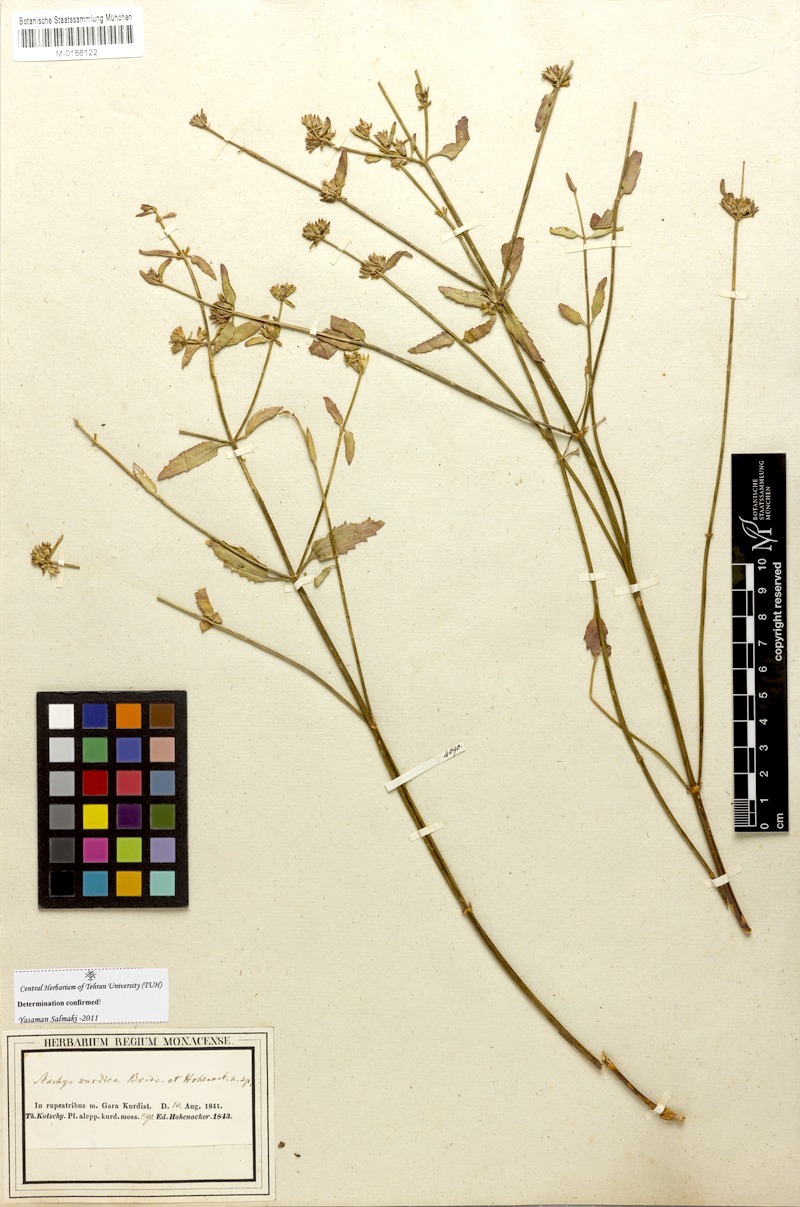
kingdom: Plantae
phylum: Tracheophyta
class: Magnoliopsida
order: Lamiales
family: Lamiaceae
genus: Stachys
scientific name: Stachys kurdica
